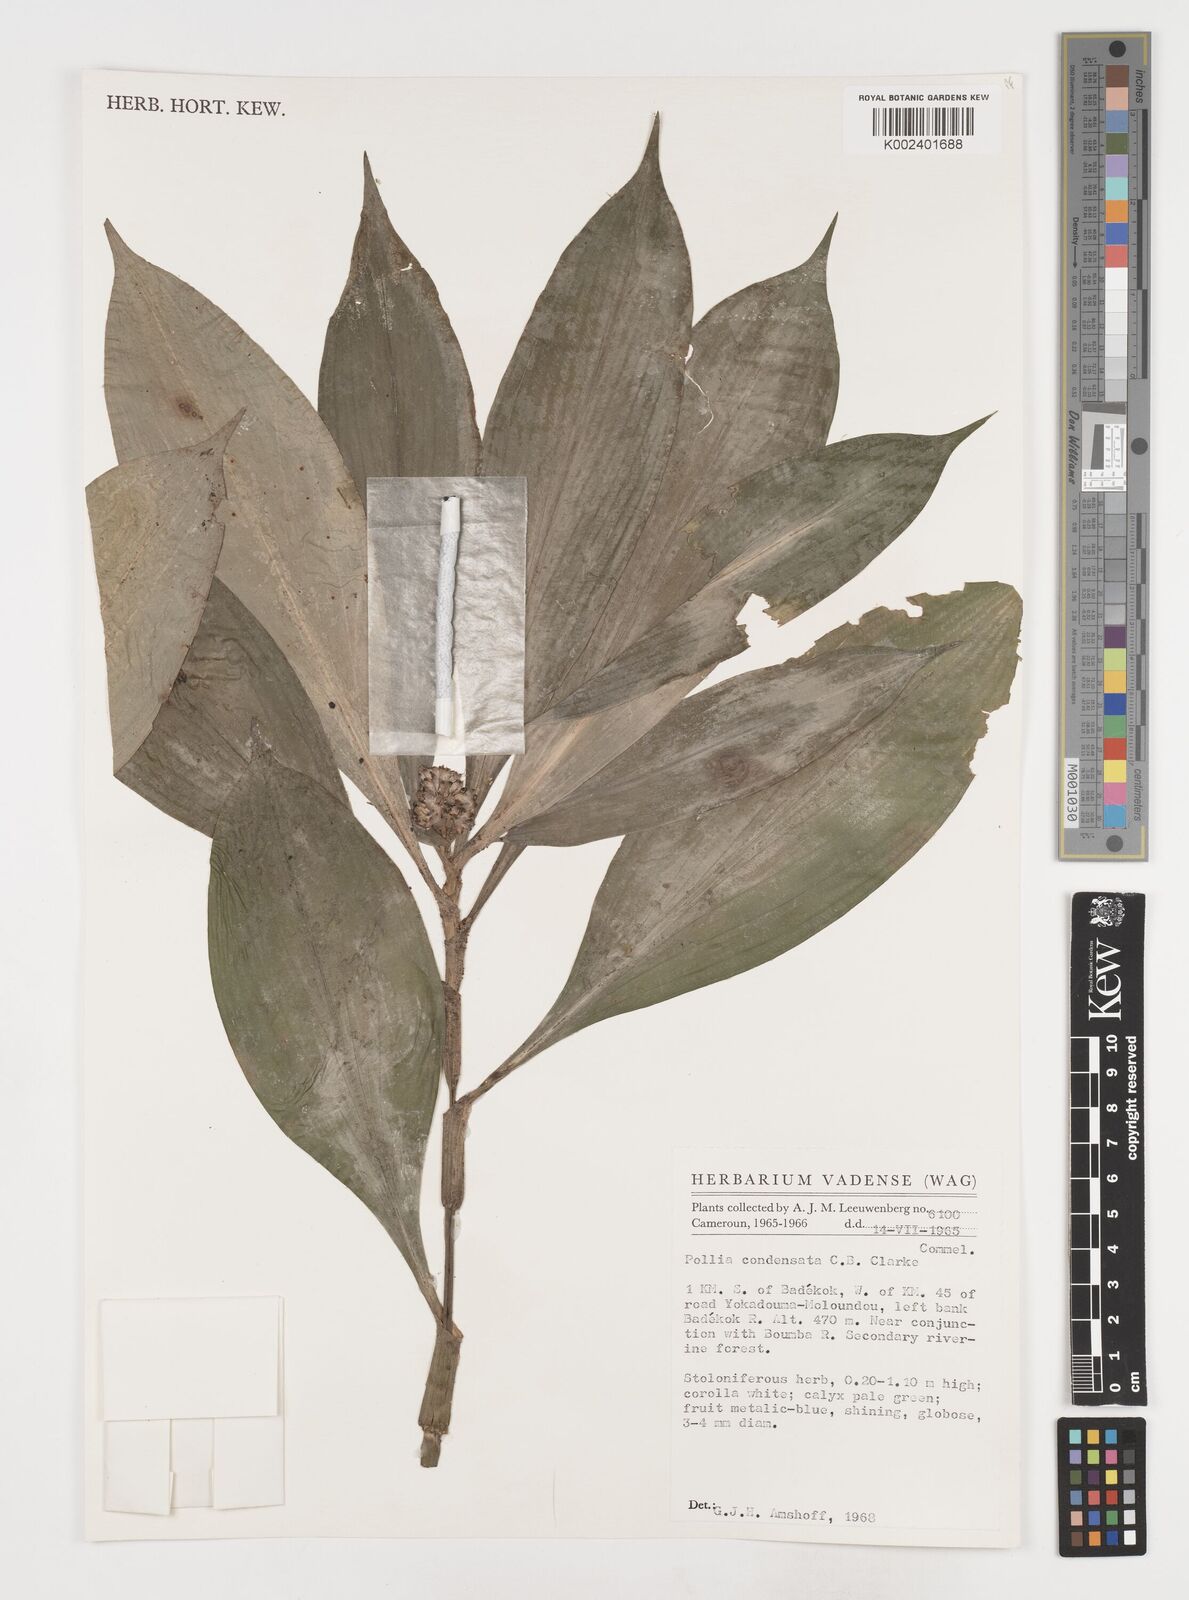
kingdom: Plantae
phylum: Tracheophyta
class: Liliopsida
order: Commelinales
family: Commelinaceae
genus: Pollia
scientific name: Pollia condensata
